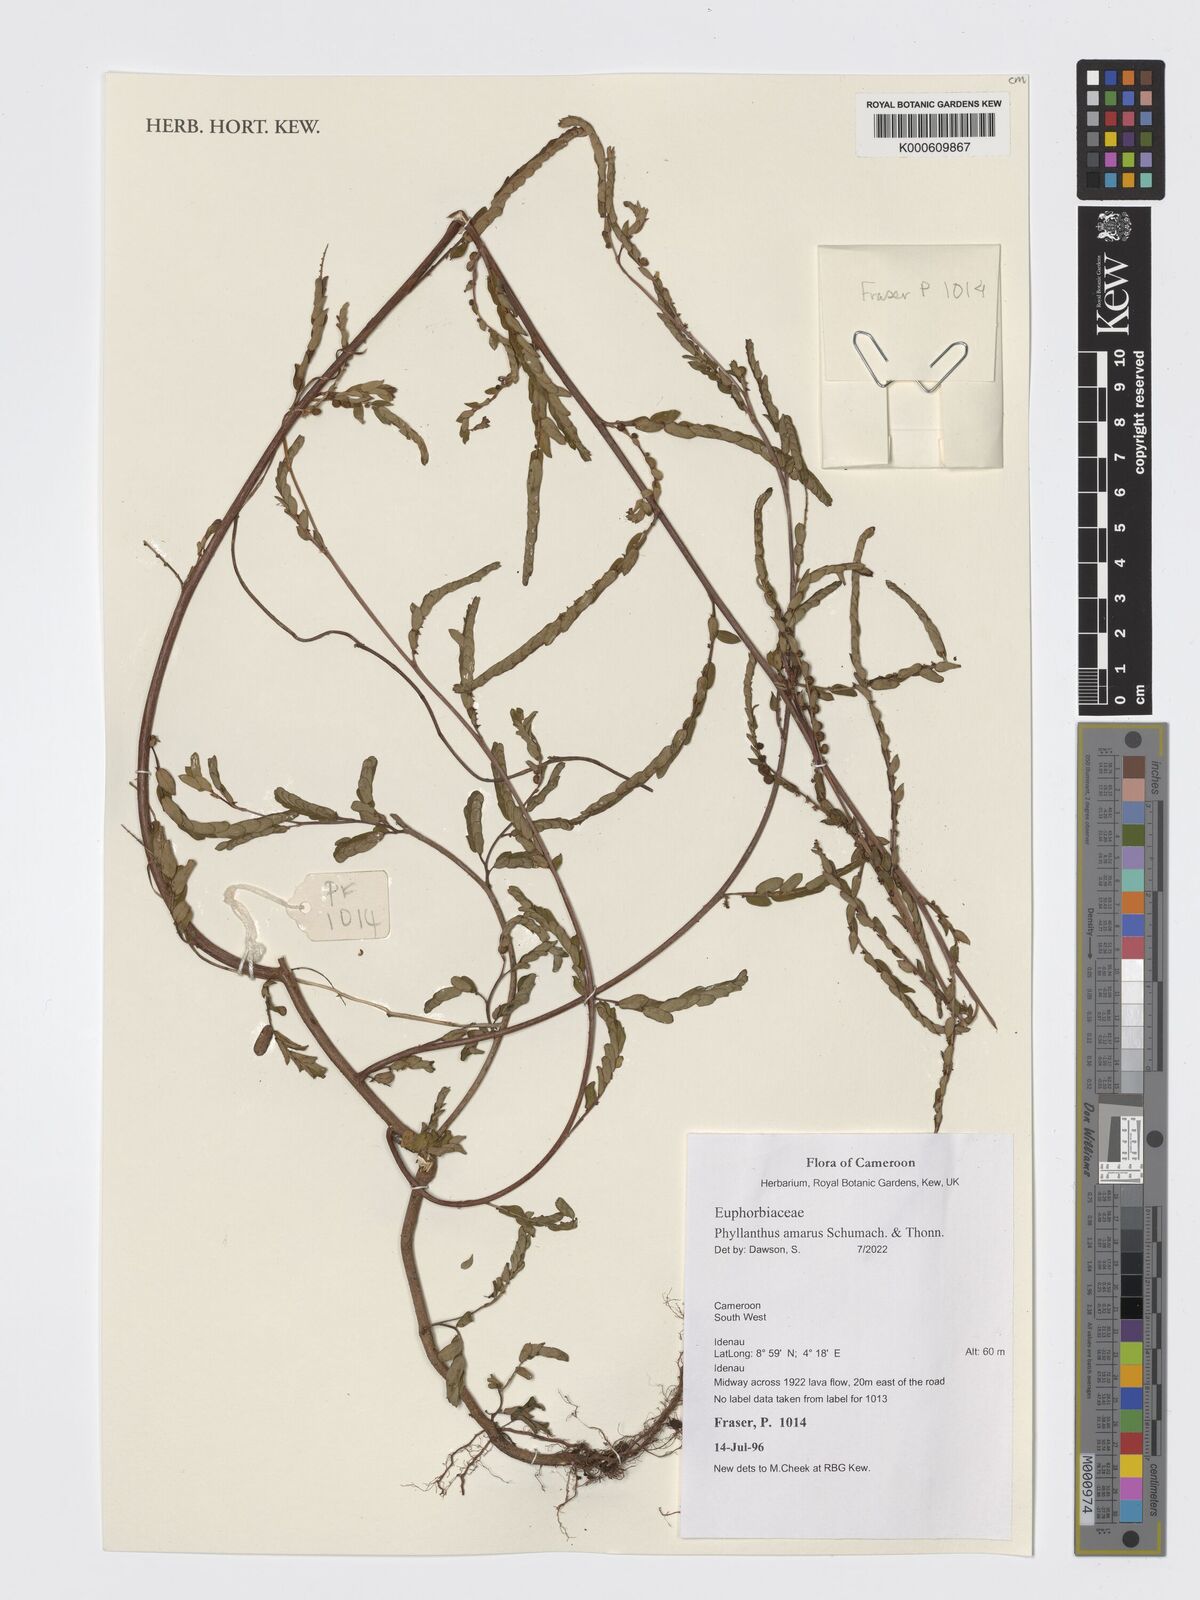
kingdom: Plantae
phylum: Tracheophyta
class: Magnoliopsida
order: Malpighiales
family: Phyllanthaceae
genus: Phyllanthus
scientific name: Phyllanthus amarus
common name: Carry me seed
